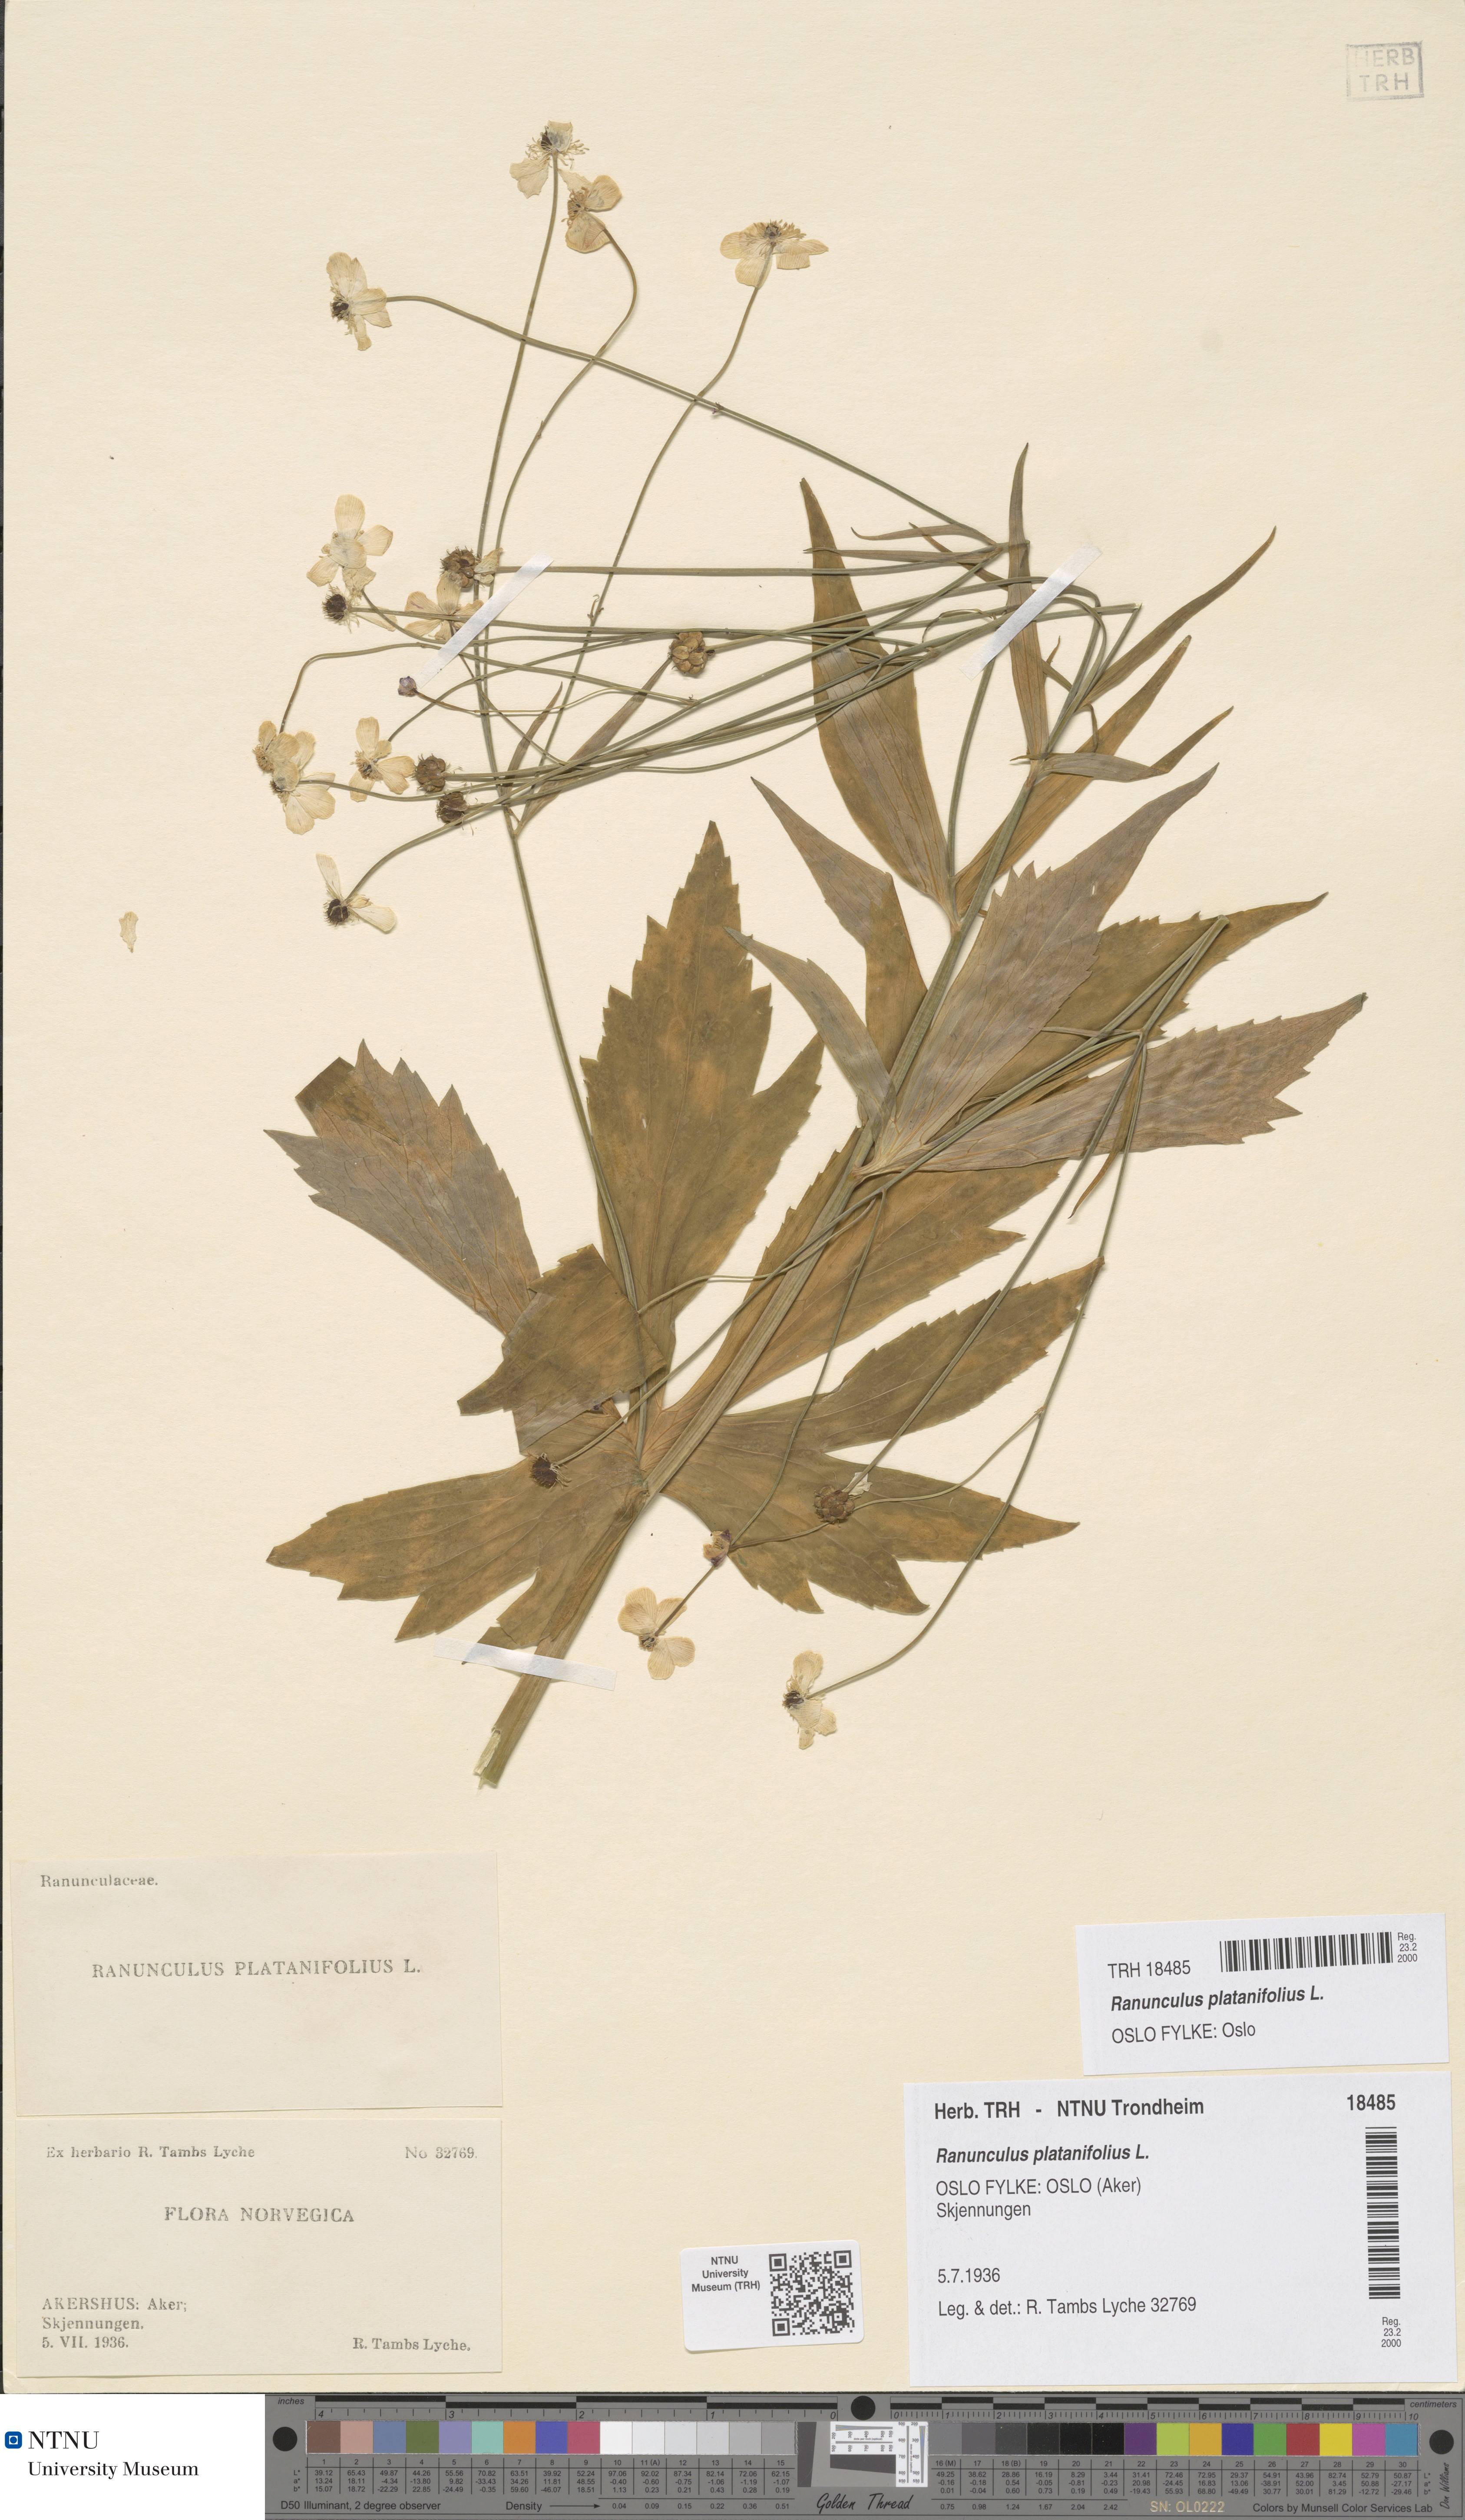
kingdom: Plantae
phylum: Tracheophyta
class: Magnoliopsida
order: Ranunculales
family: Ranunculaceae
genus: Ranunculus
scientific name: Ranunculus platanifolius
